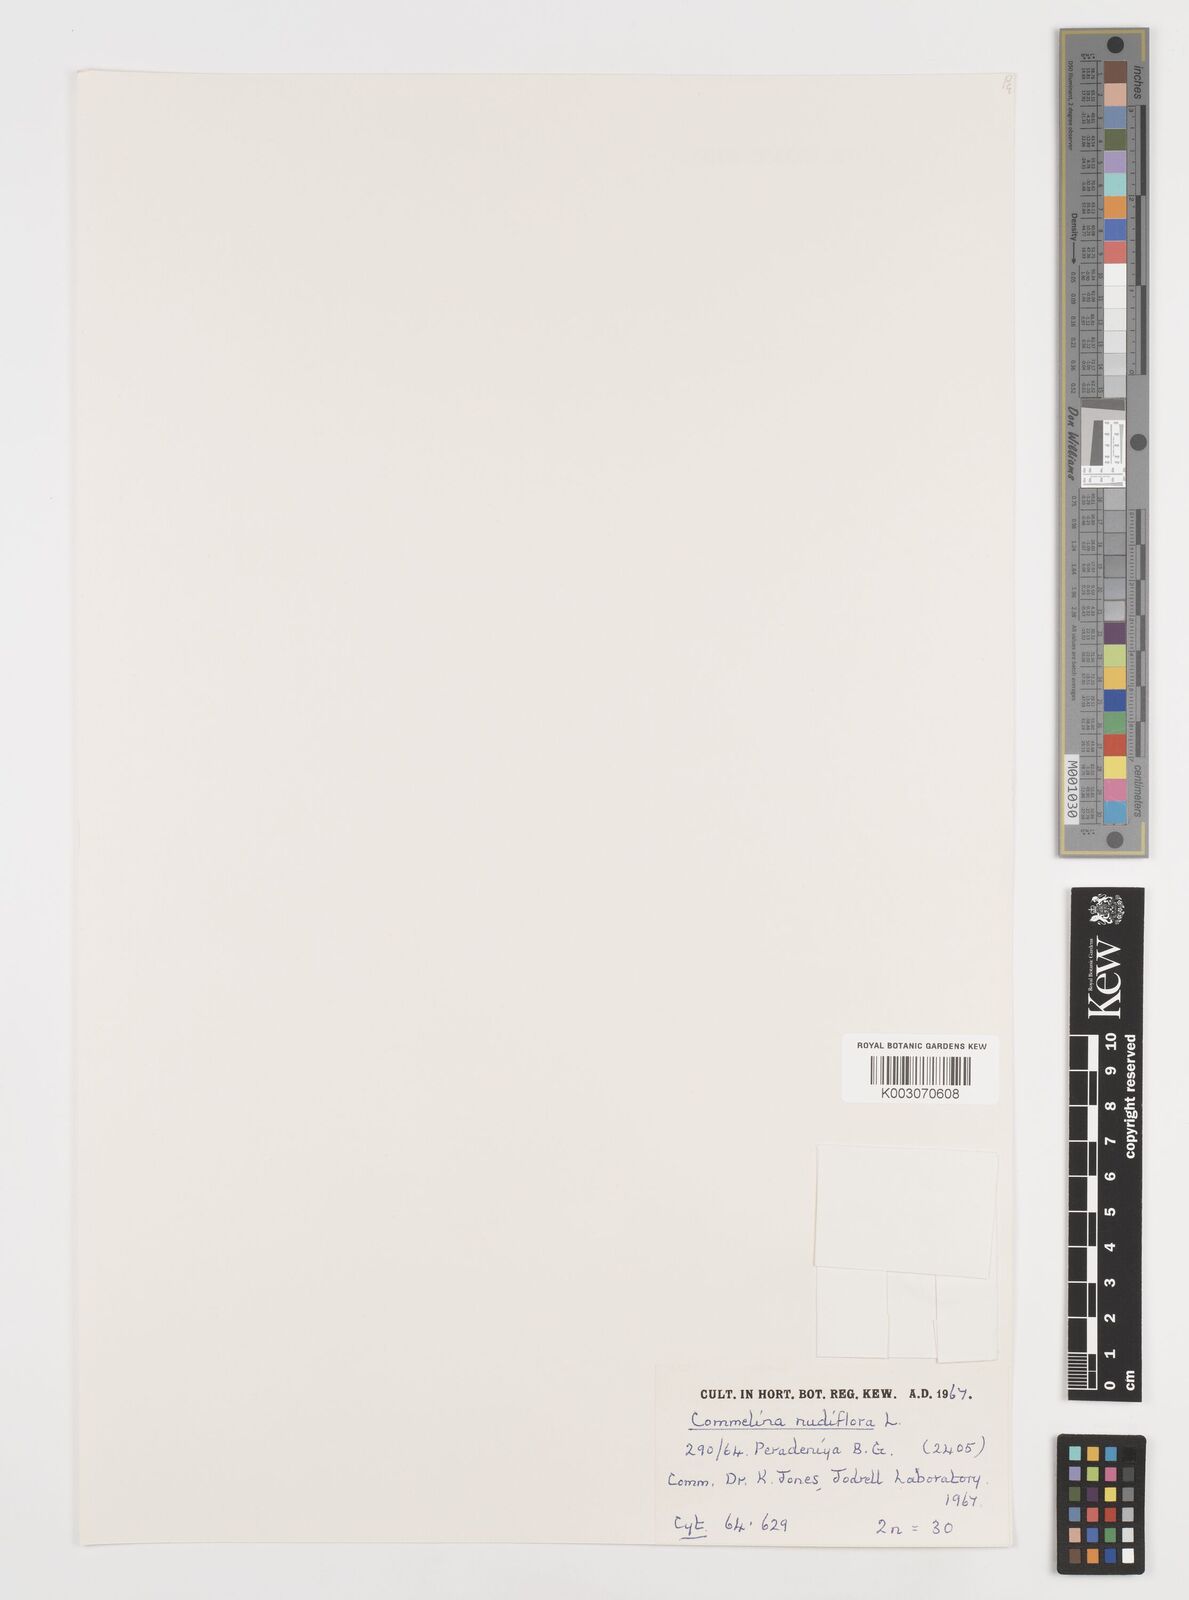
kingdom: Plantae
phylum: Tracheophyta
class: Liliopsida
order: Commelinales
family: Commelinaceae
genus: Commelina
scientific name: Commelina clavata
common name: Willow leaved dayflower
